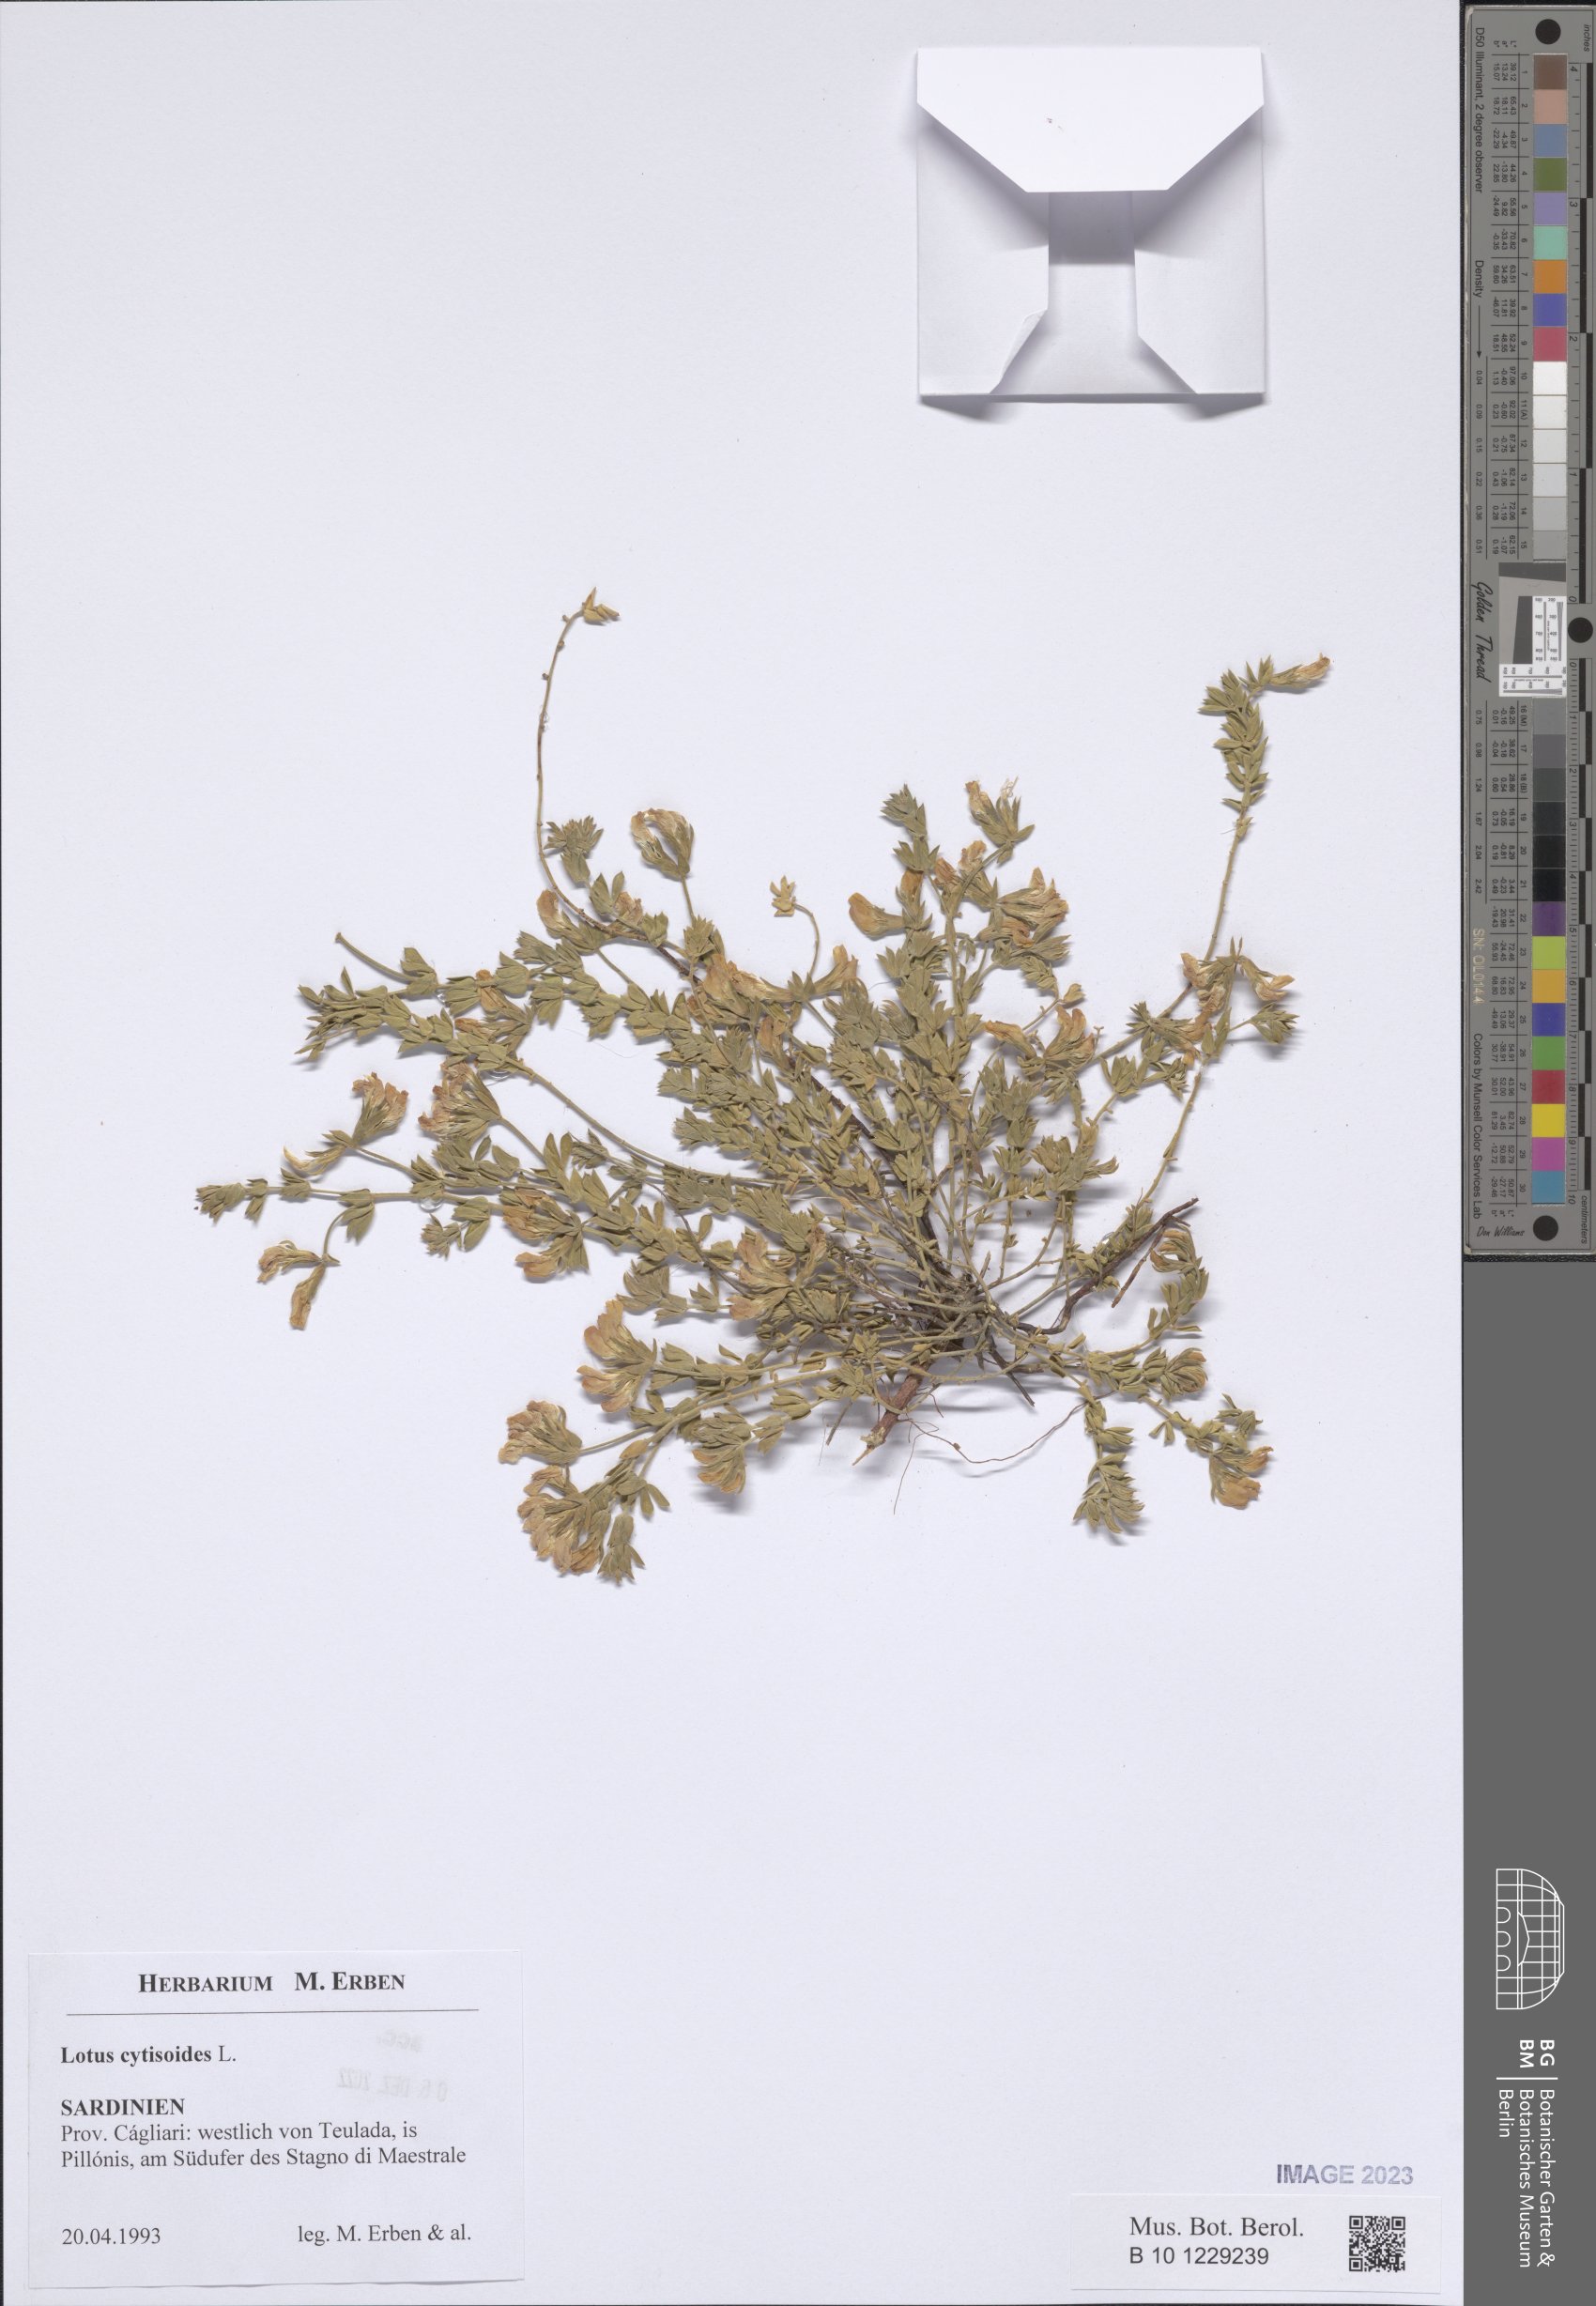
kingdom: Plantae
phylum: Tracheophyta
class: Magnoliopsida
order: Fabales
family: Fabaceae
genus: Lotus
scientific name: Lotus cytisoides
